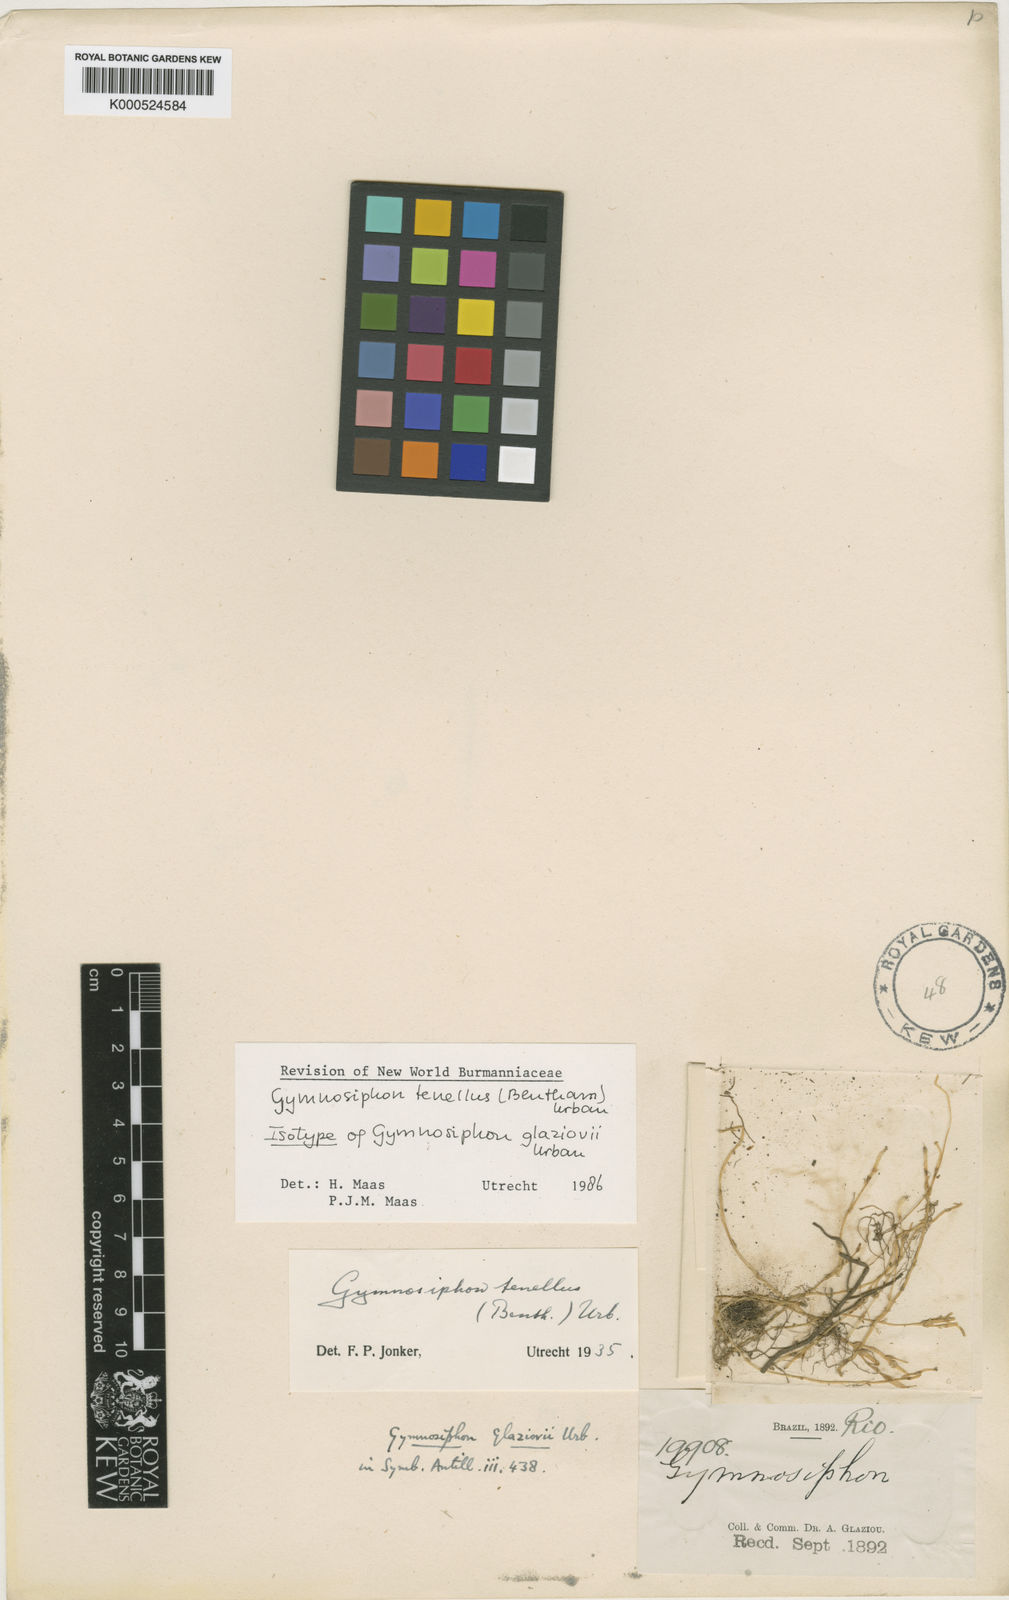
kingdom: Plantae
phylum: Tracheophyta
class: Liliopsida
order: Dioscoreales
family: Burmanniaceae
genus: Gymnosiphon
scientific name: Gymnosiphon tenellus
